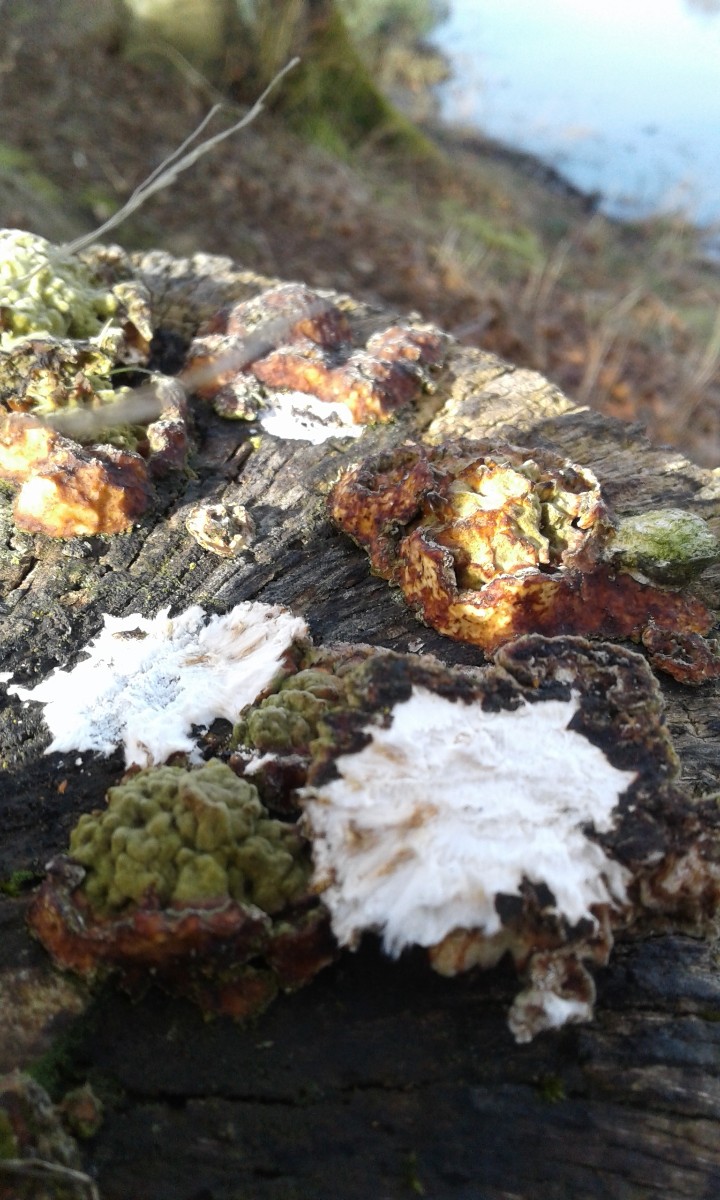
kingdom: Fungi
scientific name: Fungi
